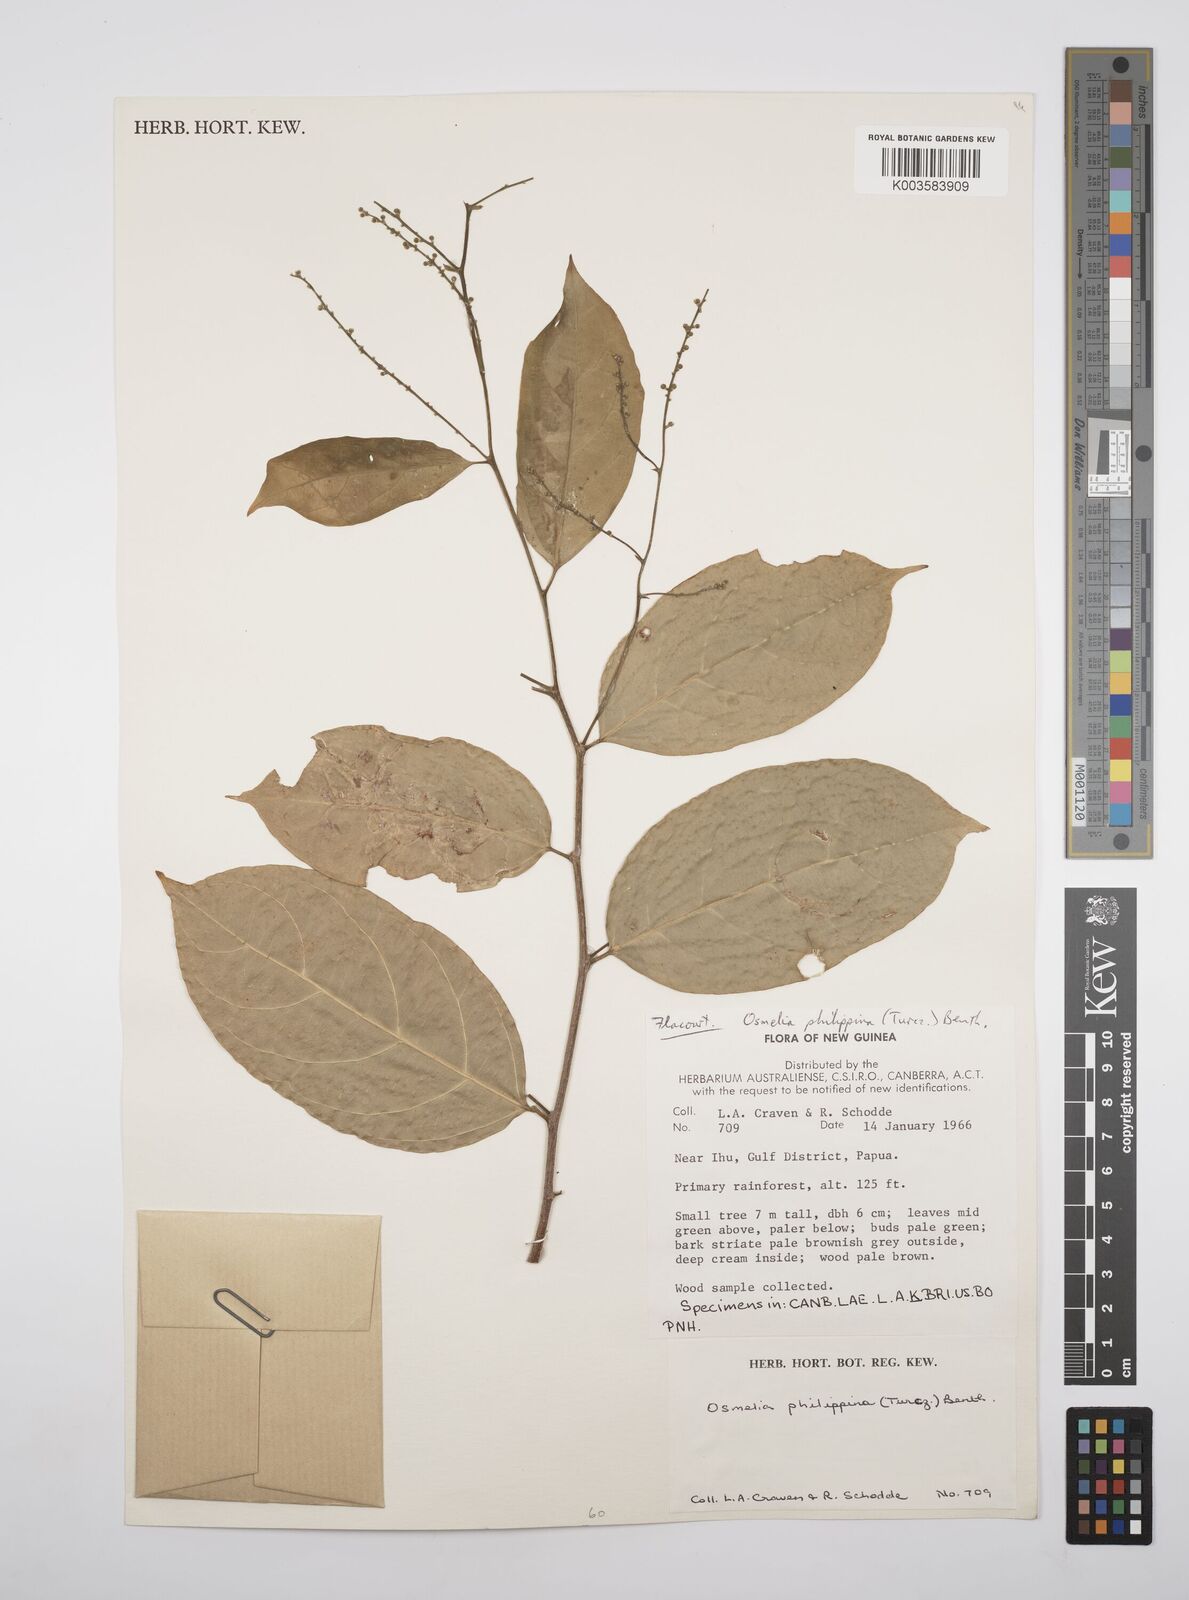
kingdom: Plantae
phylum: Tracheophyta
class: Magnoliopsida
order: Malpighiales
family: Salicaceae
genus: Osmelia
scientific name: Osmelia philippina
